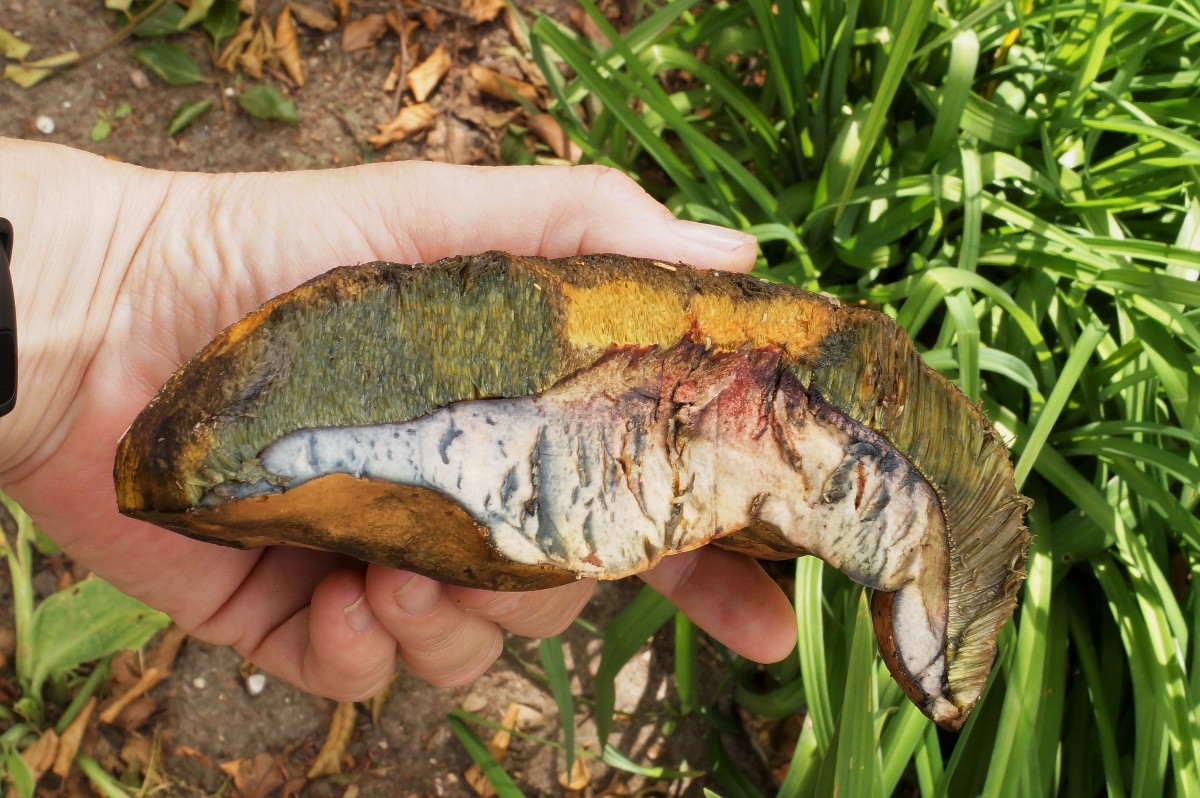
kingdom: Fungi
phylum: Basidiomycota
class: Agaricomycetes
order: Boletales
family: Boletaceae
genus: Suillellus
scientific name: Suillellus luridus
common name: netstokket indigorørhat
